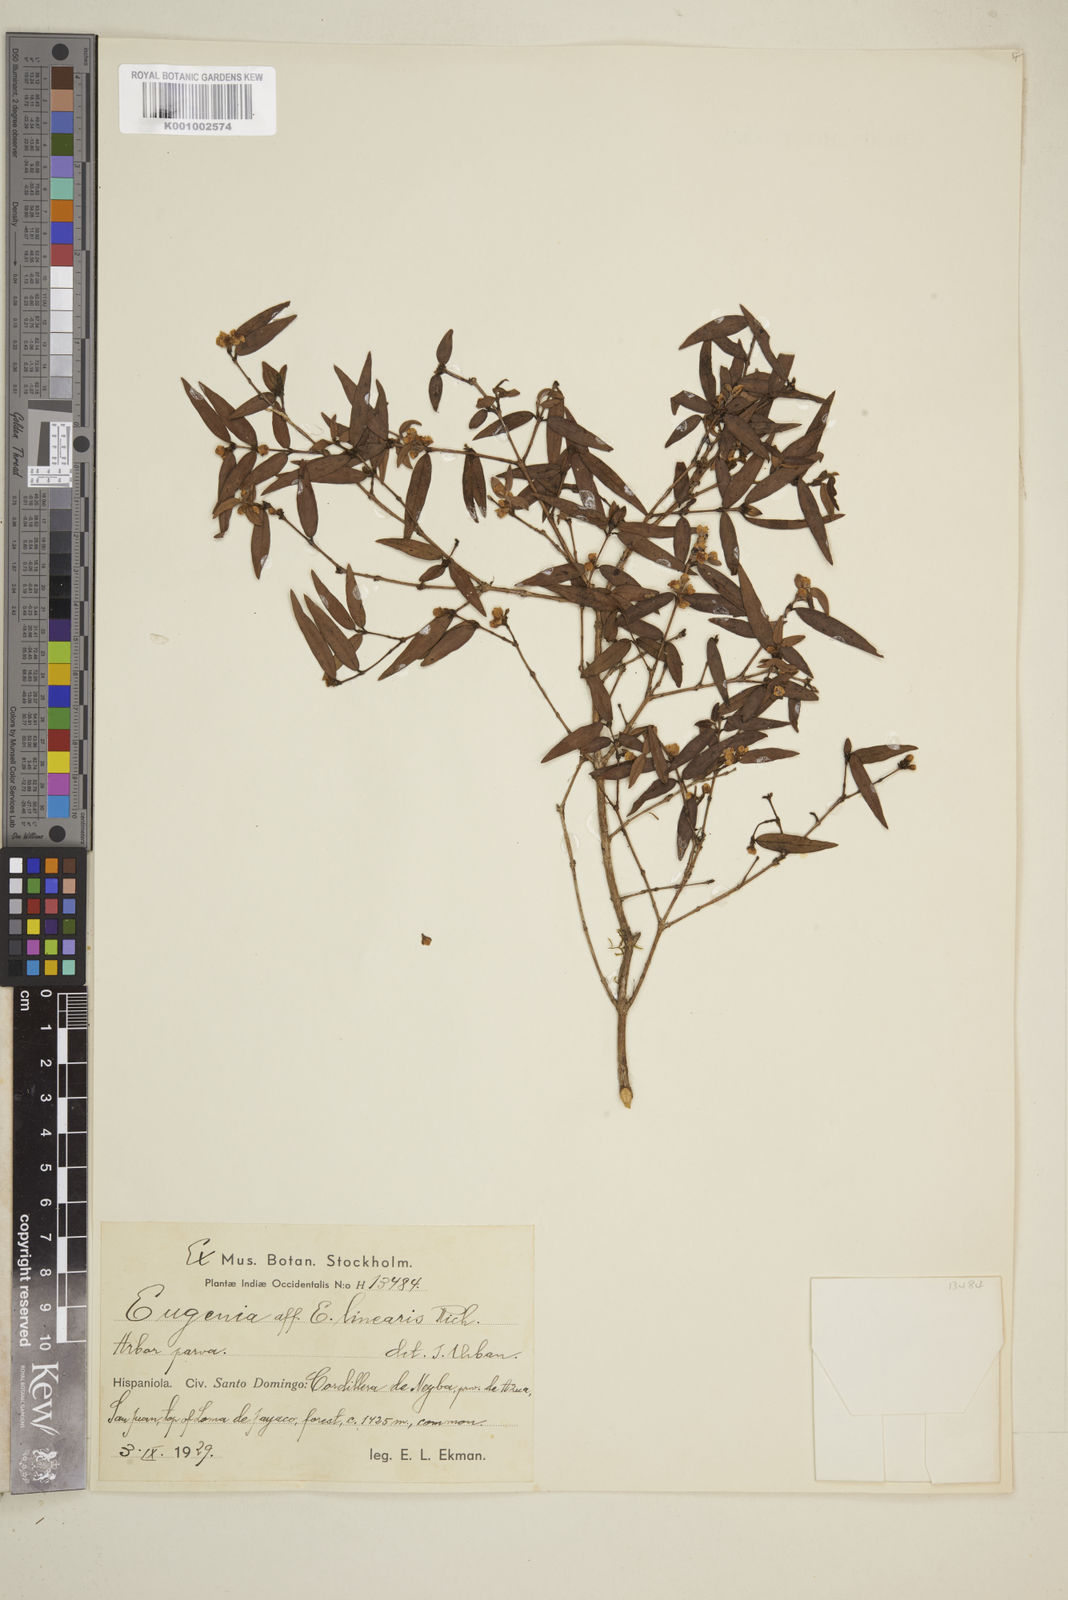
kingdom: Plantae
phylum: Tracheophyta
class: Magnoliopsida
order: Myrtales
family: Myrtaceae
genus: Eugenia
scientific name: Eugenia linearis
